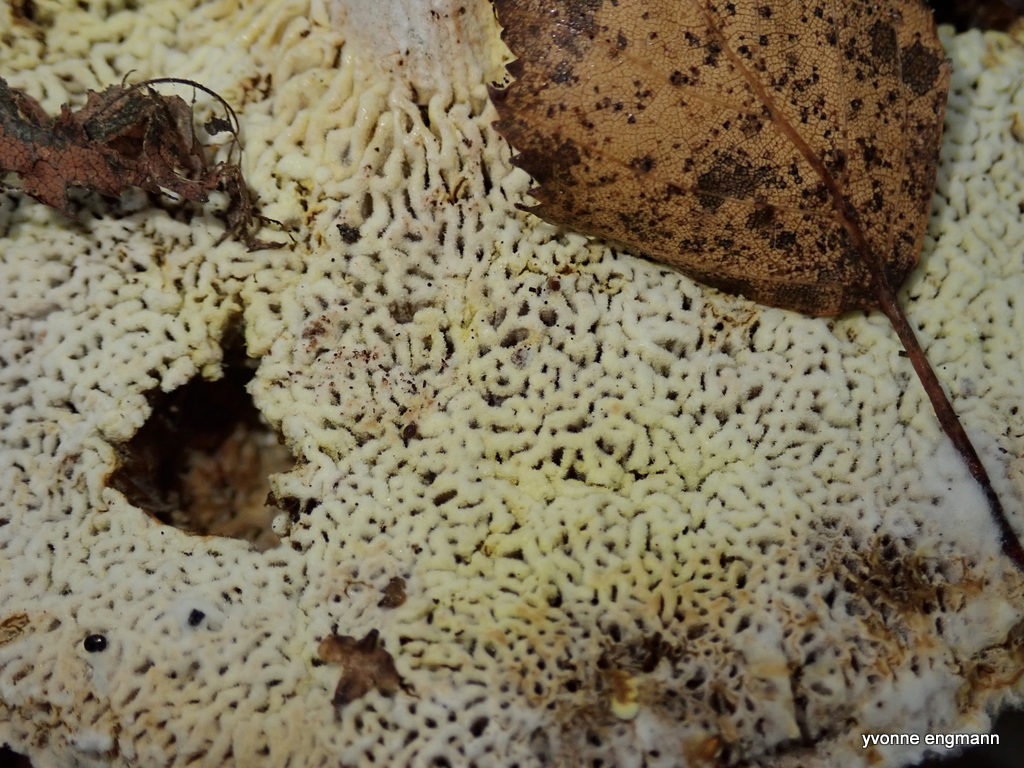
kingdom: Fungi
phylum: Ascomycota
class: Sordariomycetes
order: Hypocreales
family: Hypocreaceae
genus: Hypomyces
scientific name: Hypomyces
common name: snylteskorpe
